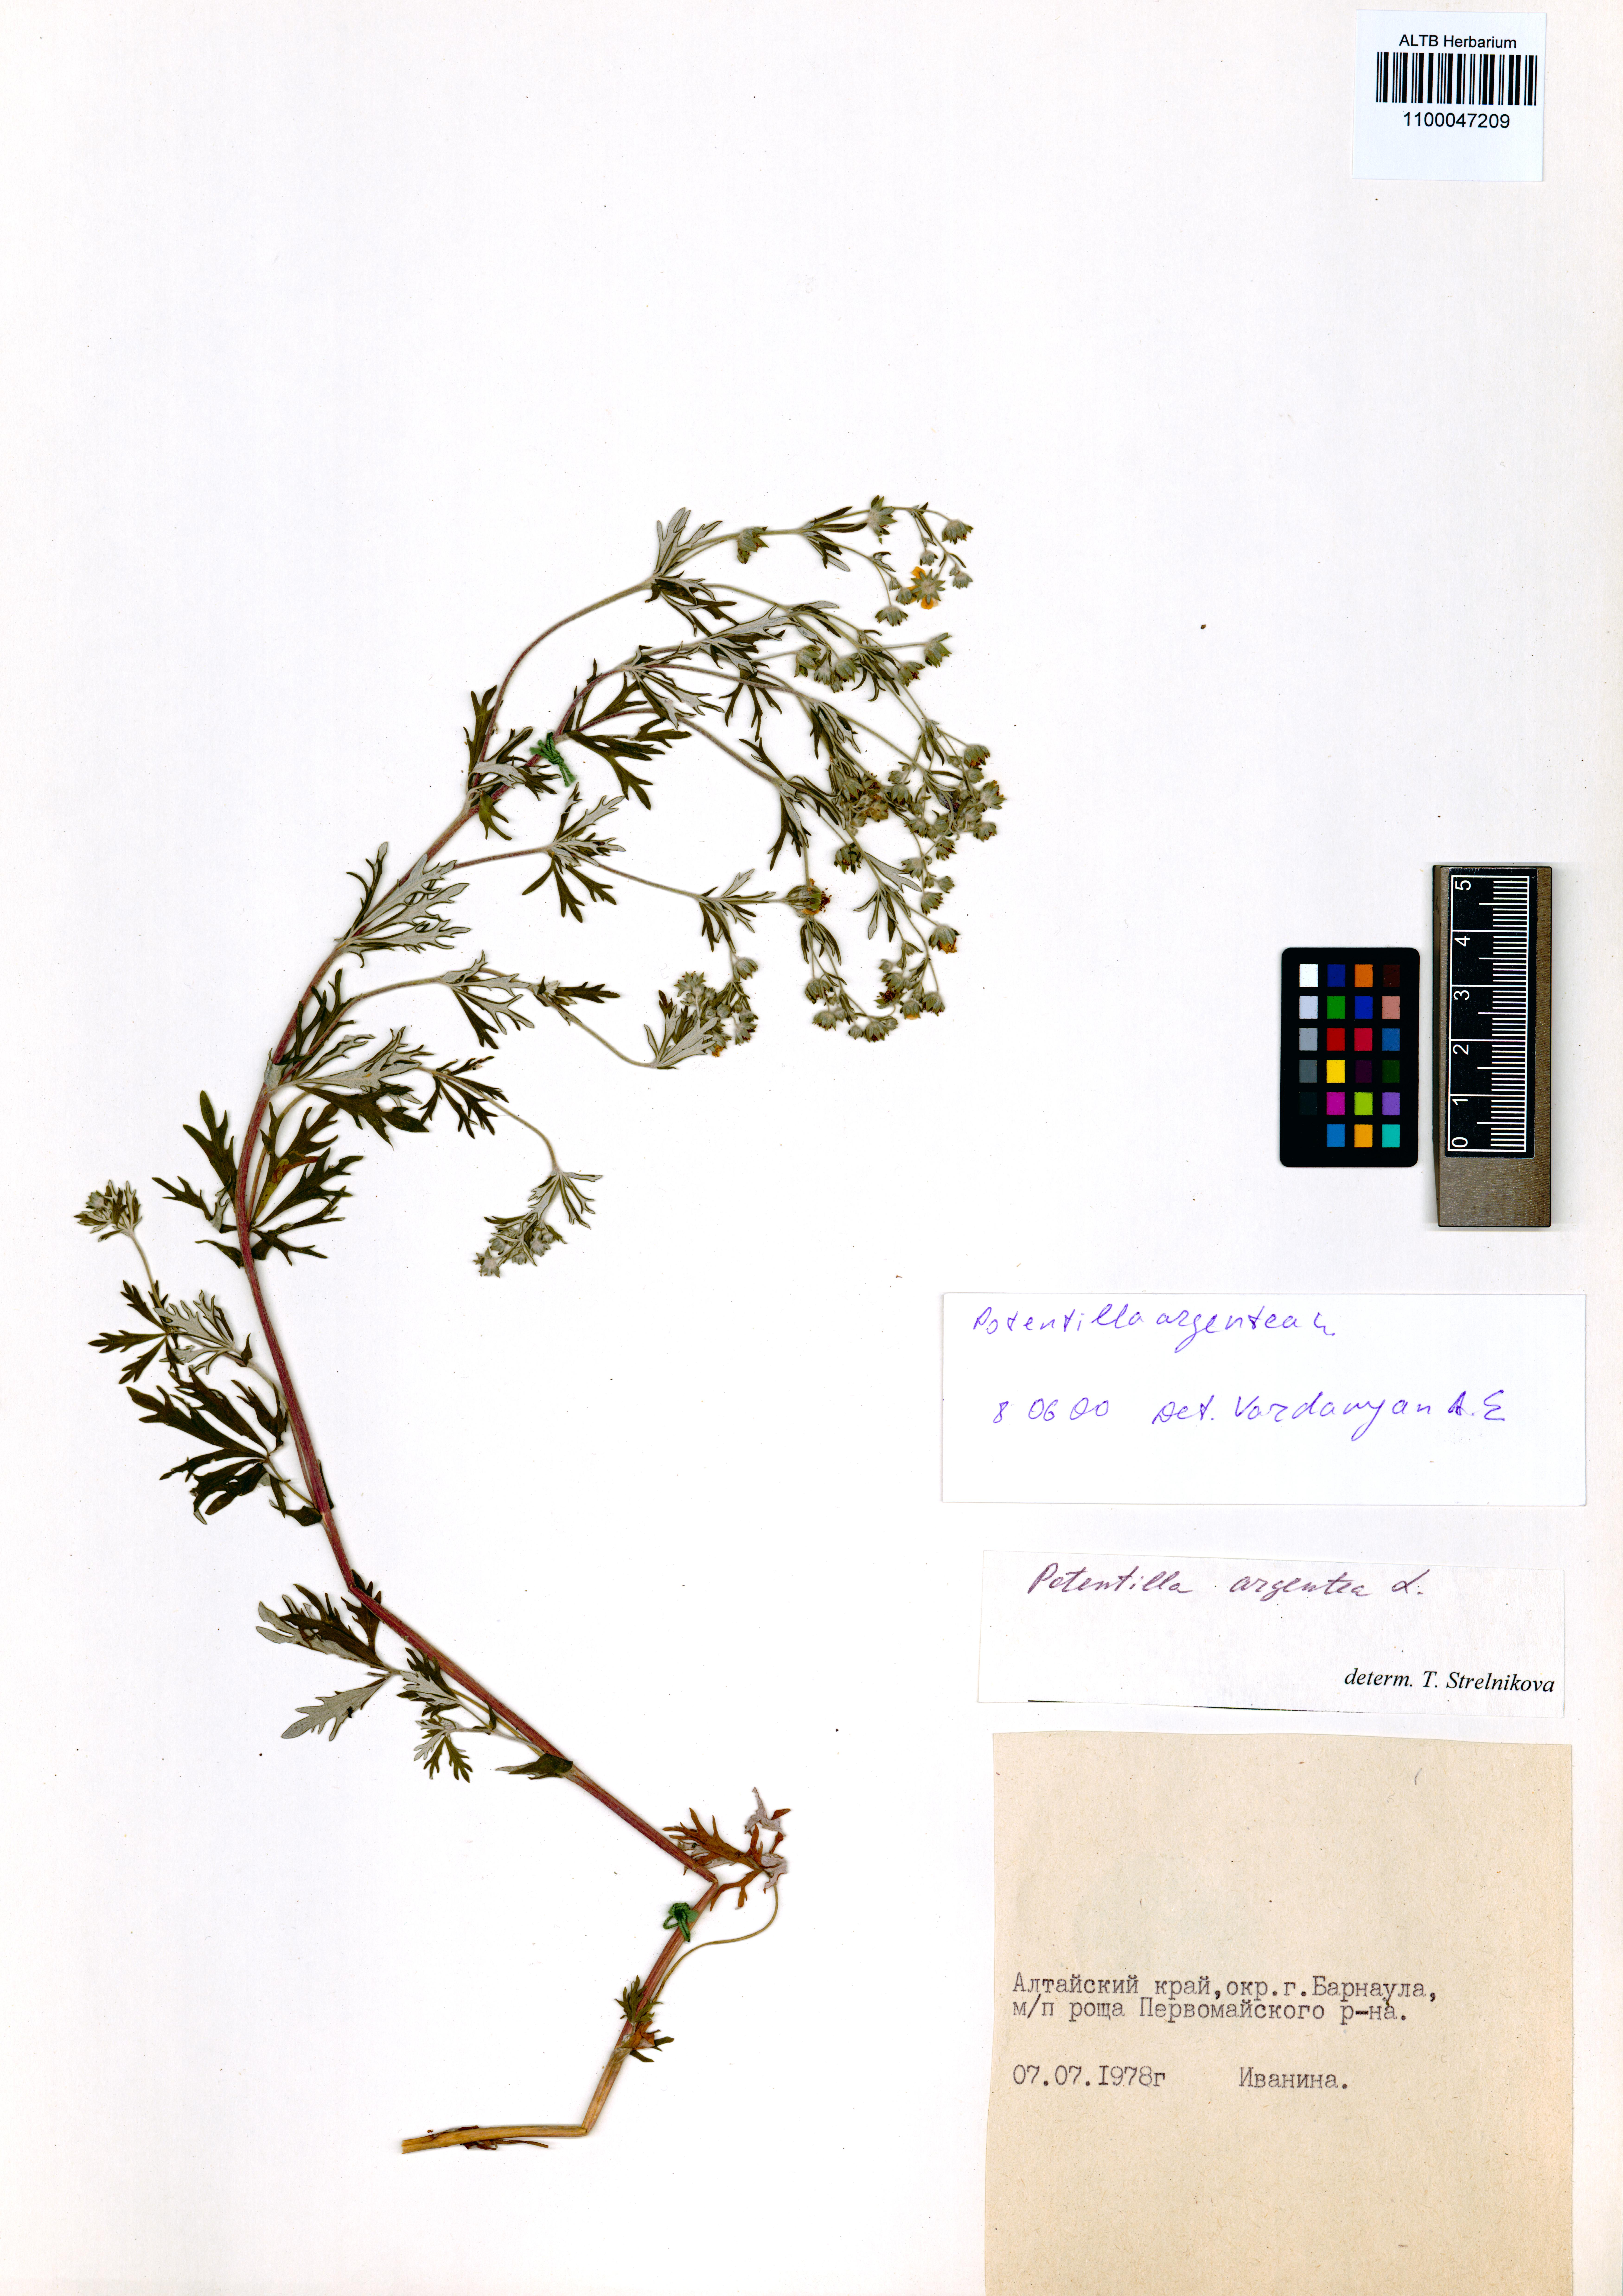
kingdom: Plantae
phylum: Tracheophyta
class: Magnoliopsida
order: Rosales
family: Rosaceae
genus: Potentilla
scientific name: Potentilla argentea
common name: Hoary cinquefoil
